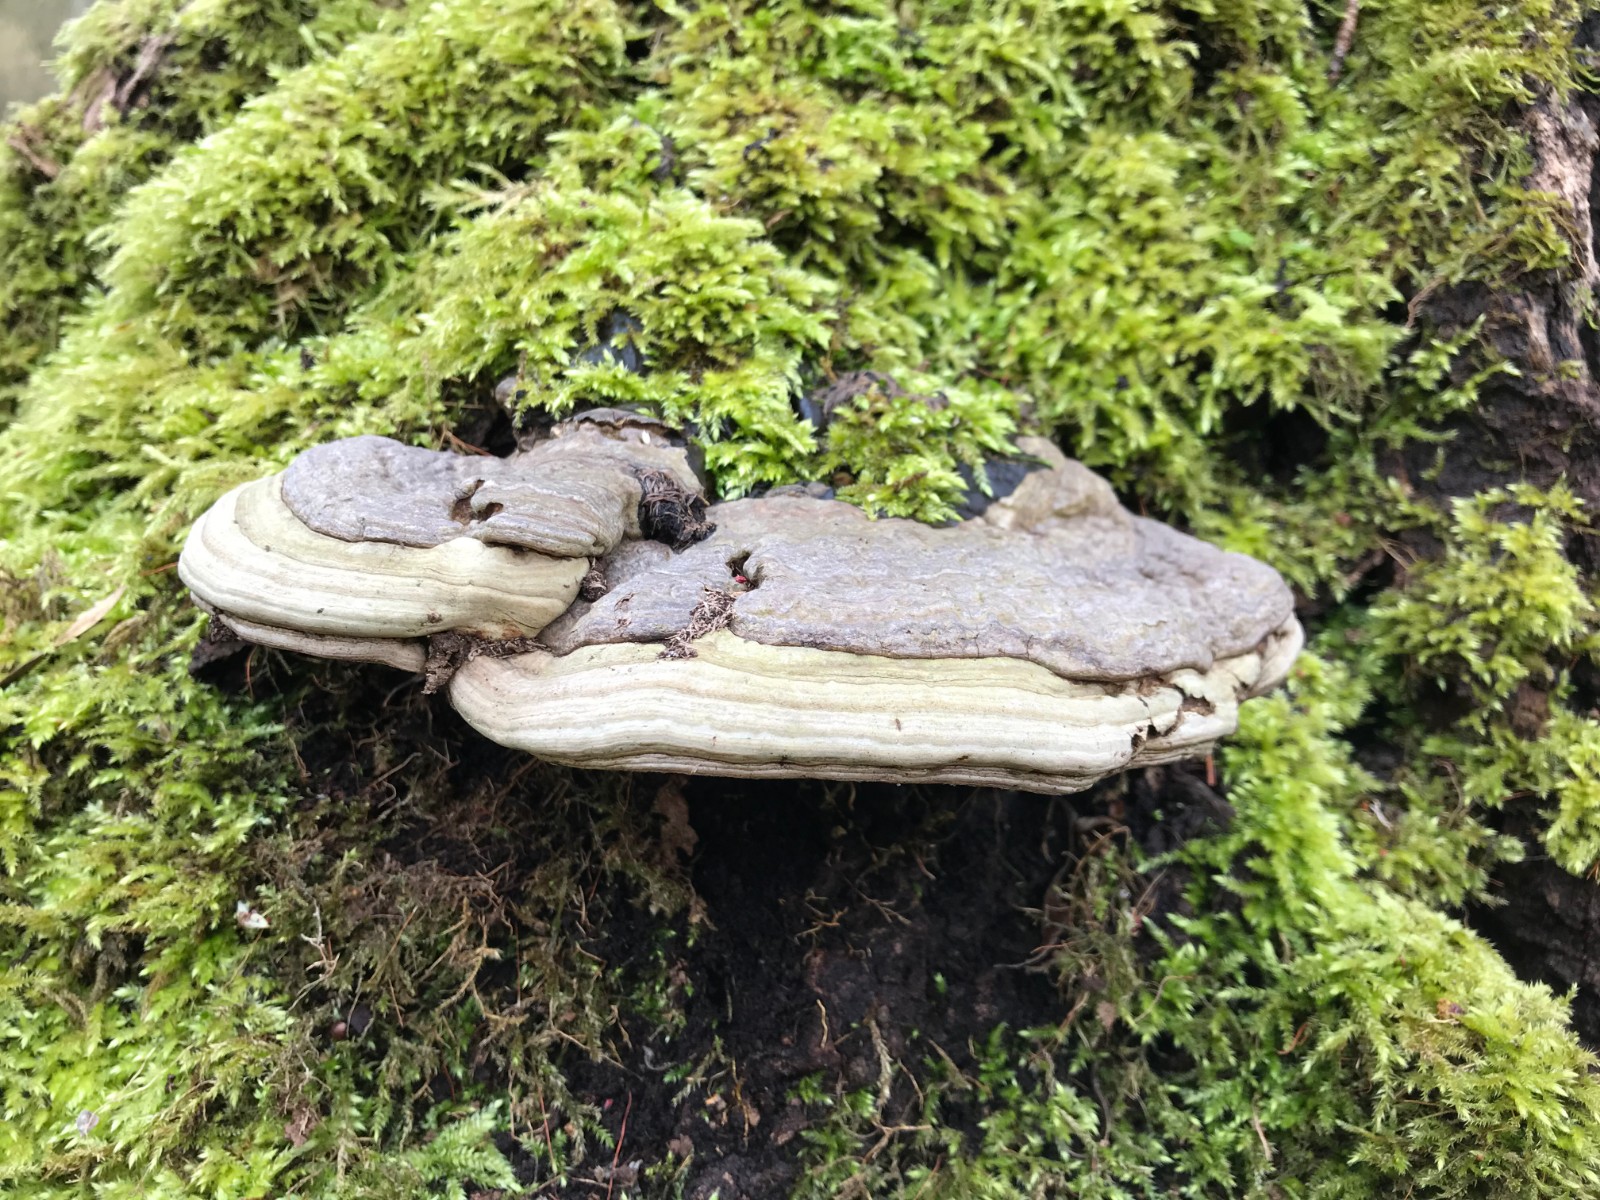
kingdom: Fungi
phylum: Basidiomycota
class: Agaricomycetes
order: Polyporales
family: Polyporaceae
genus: Ganoderma
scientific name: Ganoderma applanatum
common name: flad lakporesvamp
